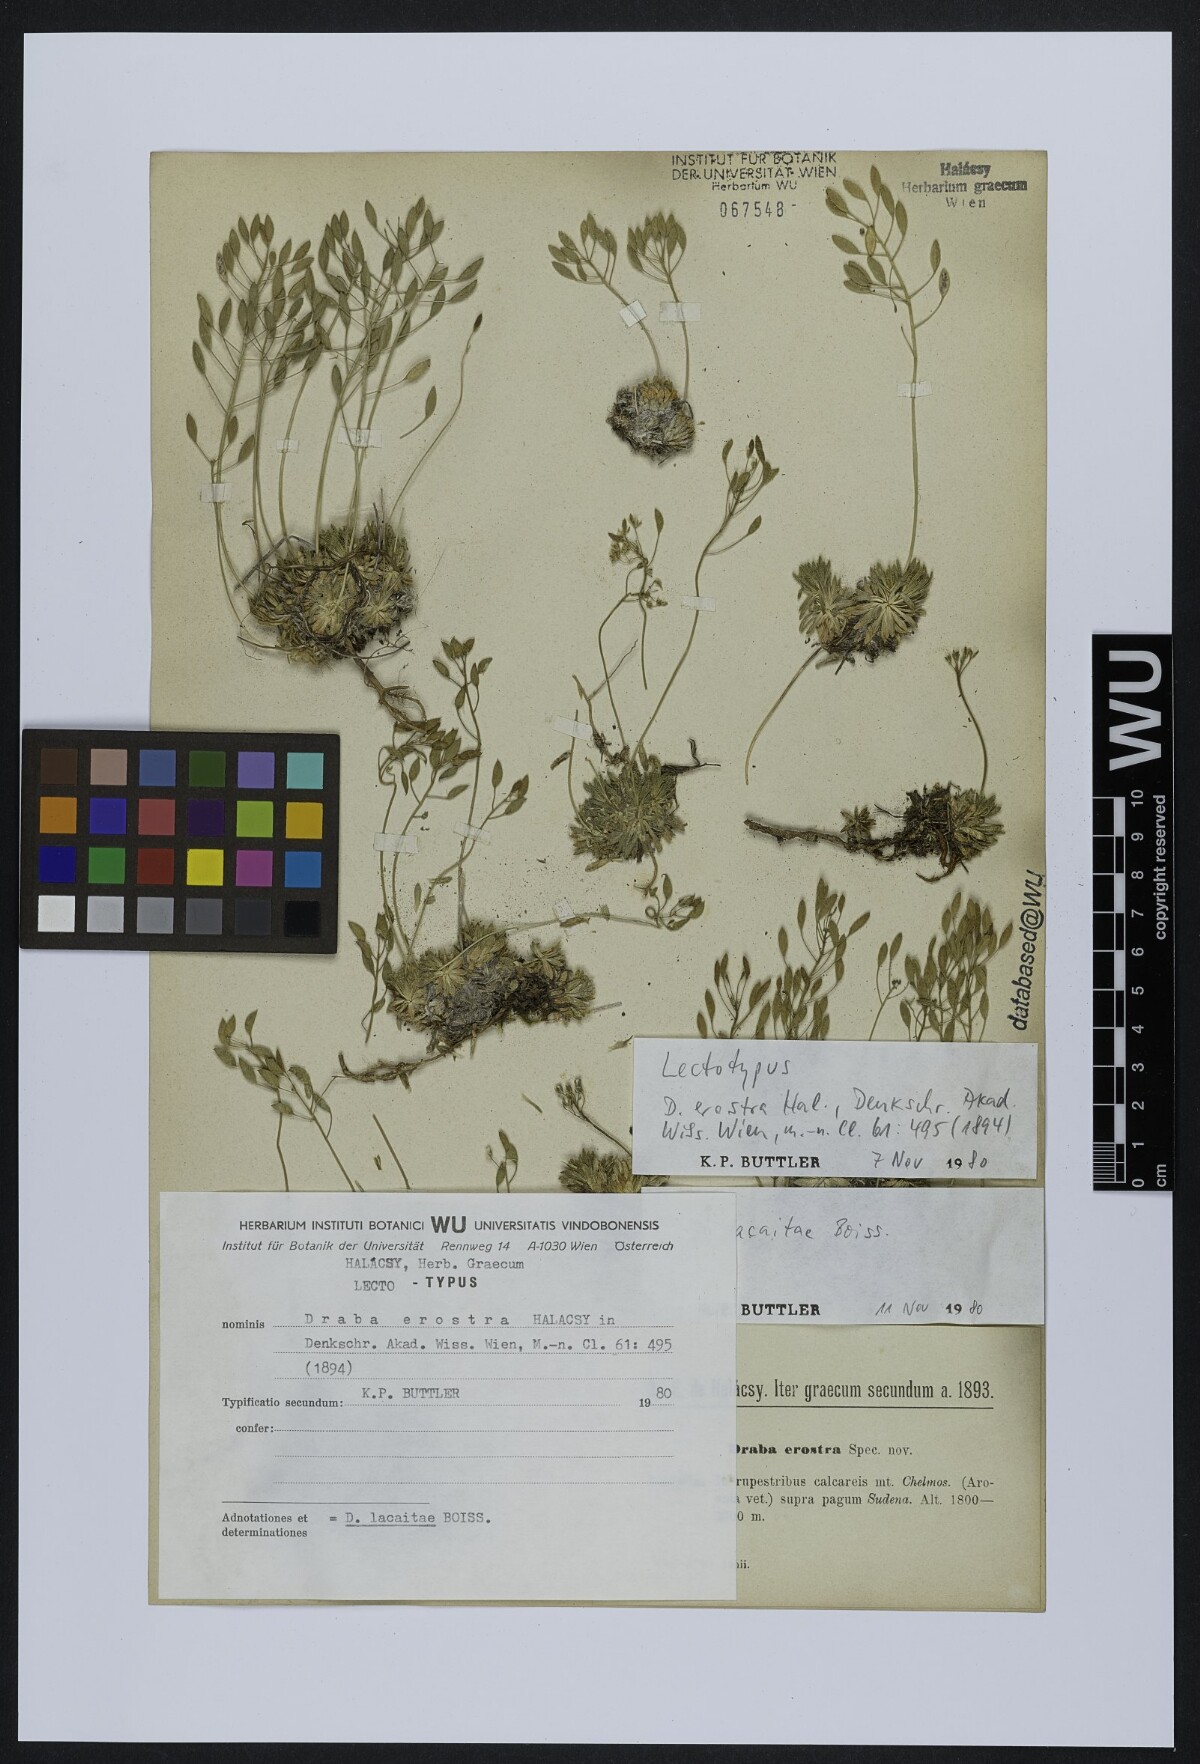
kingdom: Plantae
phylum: Tracheophyta
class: Magnoliopsida
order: Brassicales
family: Brassicaceae
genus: Draba
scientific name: Draba lacaitae
